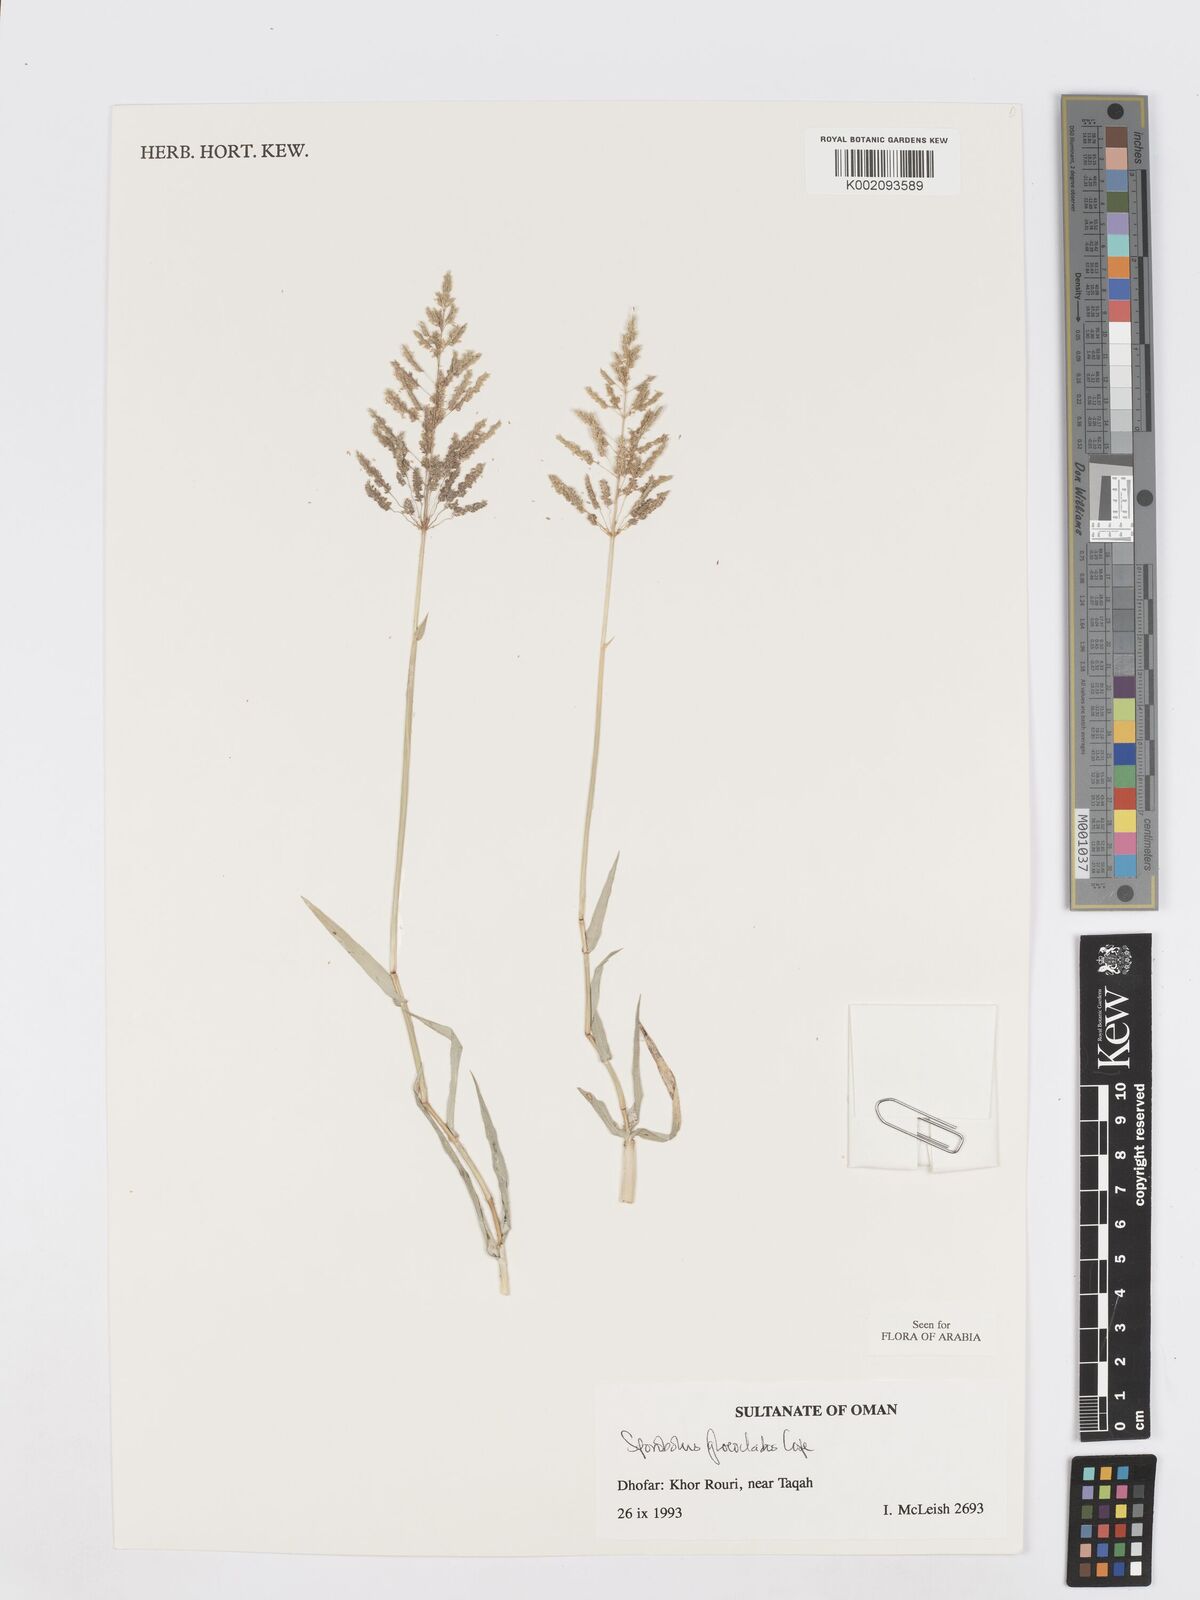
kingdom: Plantae
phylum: Tracheophyta
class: Liliopsida
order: Poales
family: Poaceae
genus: Sporobolus
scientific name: Sporobolus gloeoclados
